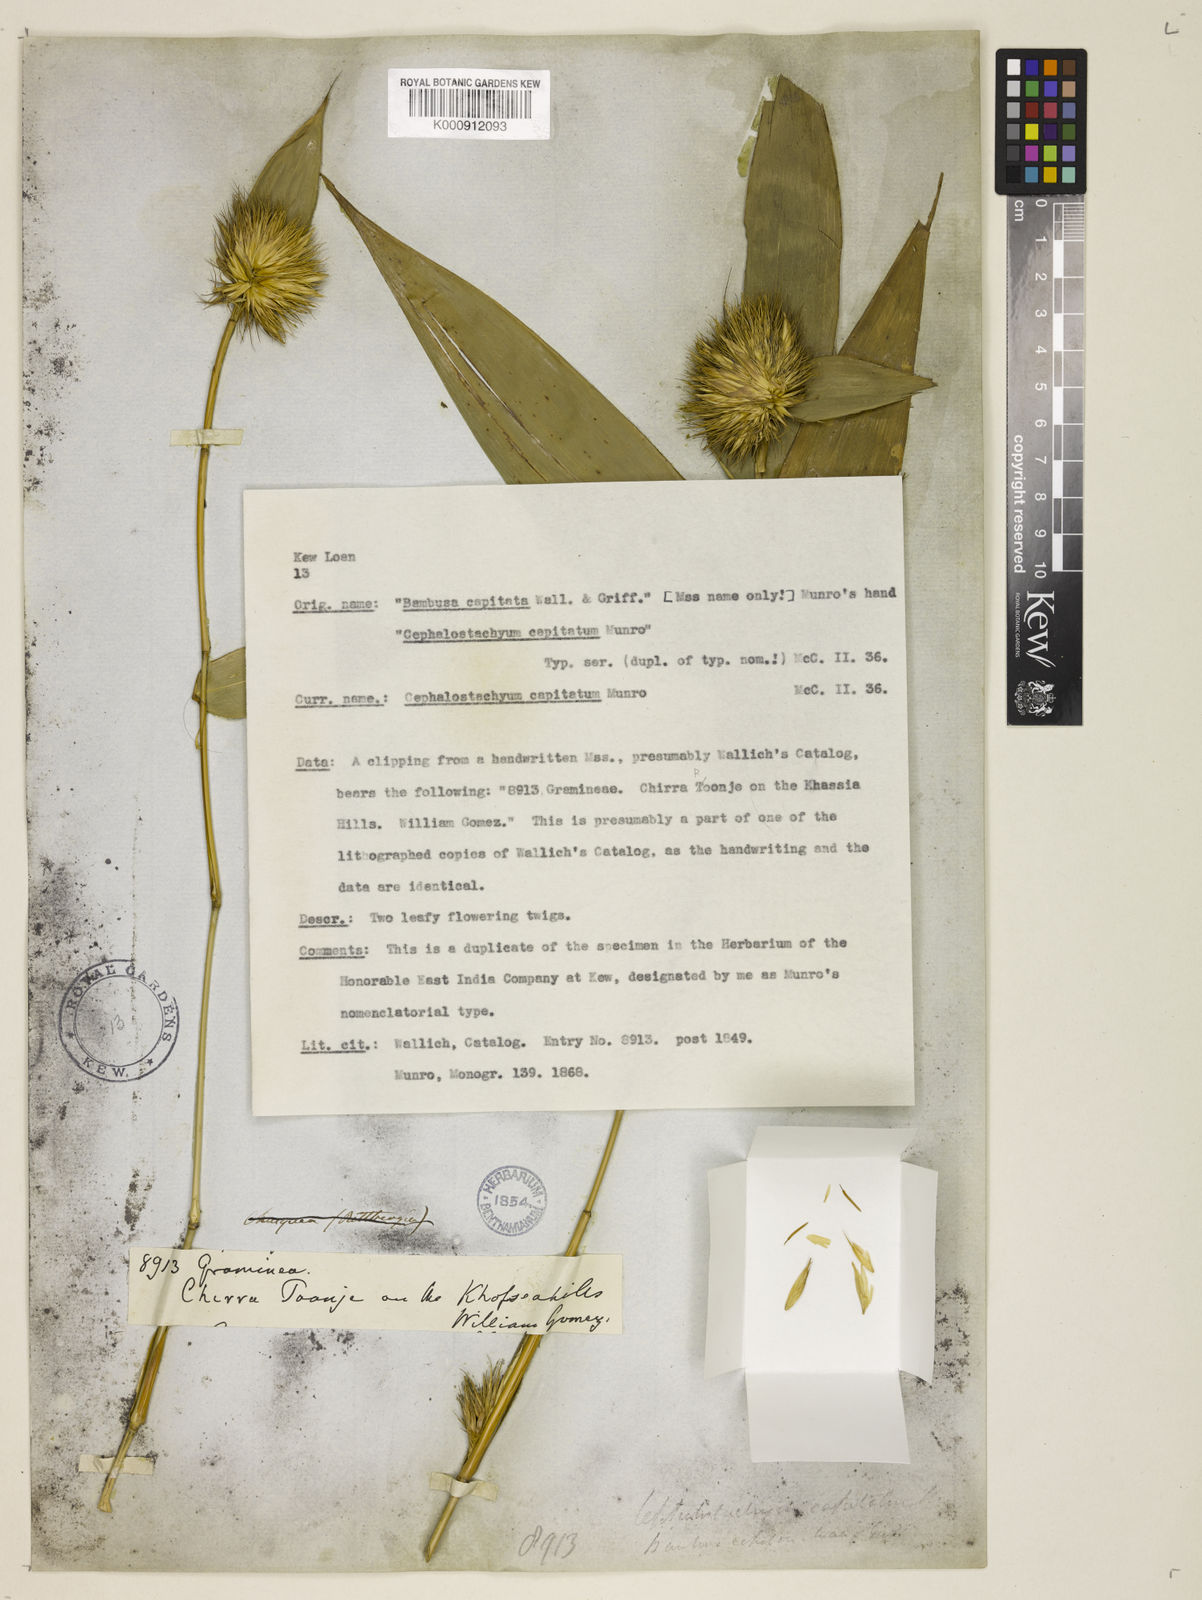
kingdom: Plantae
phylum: Tracheophyta
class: Liliopsida
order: Poales
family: Poaceae
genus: Cephalostachyum
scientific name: Cephalostachyum capitatum
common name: Hollow bamboo
